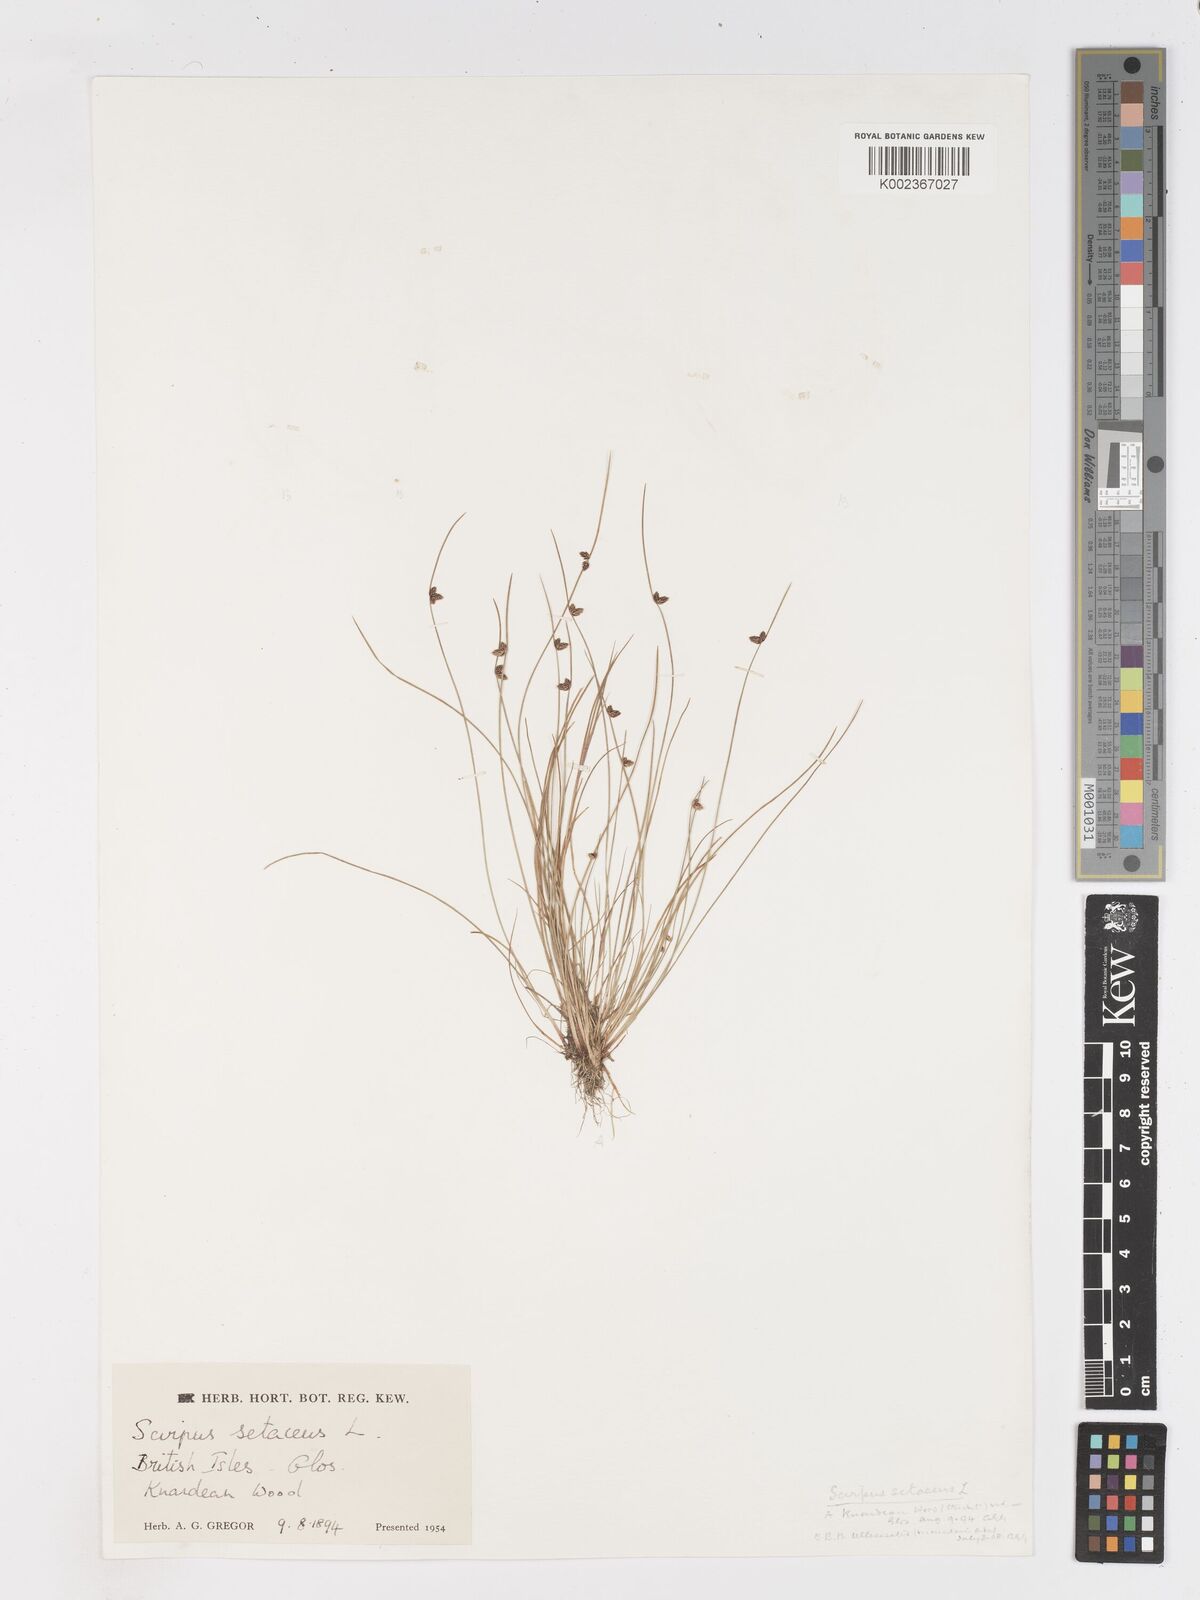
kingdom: Plantae
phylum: Tracheophyta
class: Liliopsida
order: Poales
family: Cyperaceae
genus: Isolepis
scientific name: Isolepis setacea
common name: Bristle club-rush
